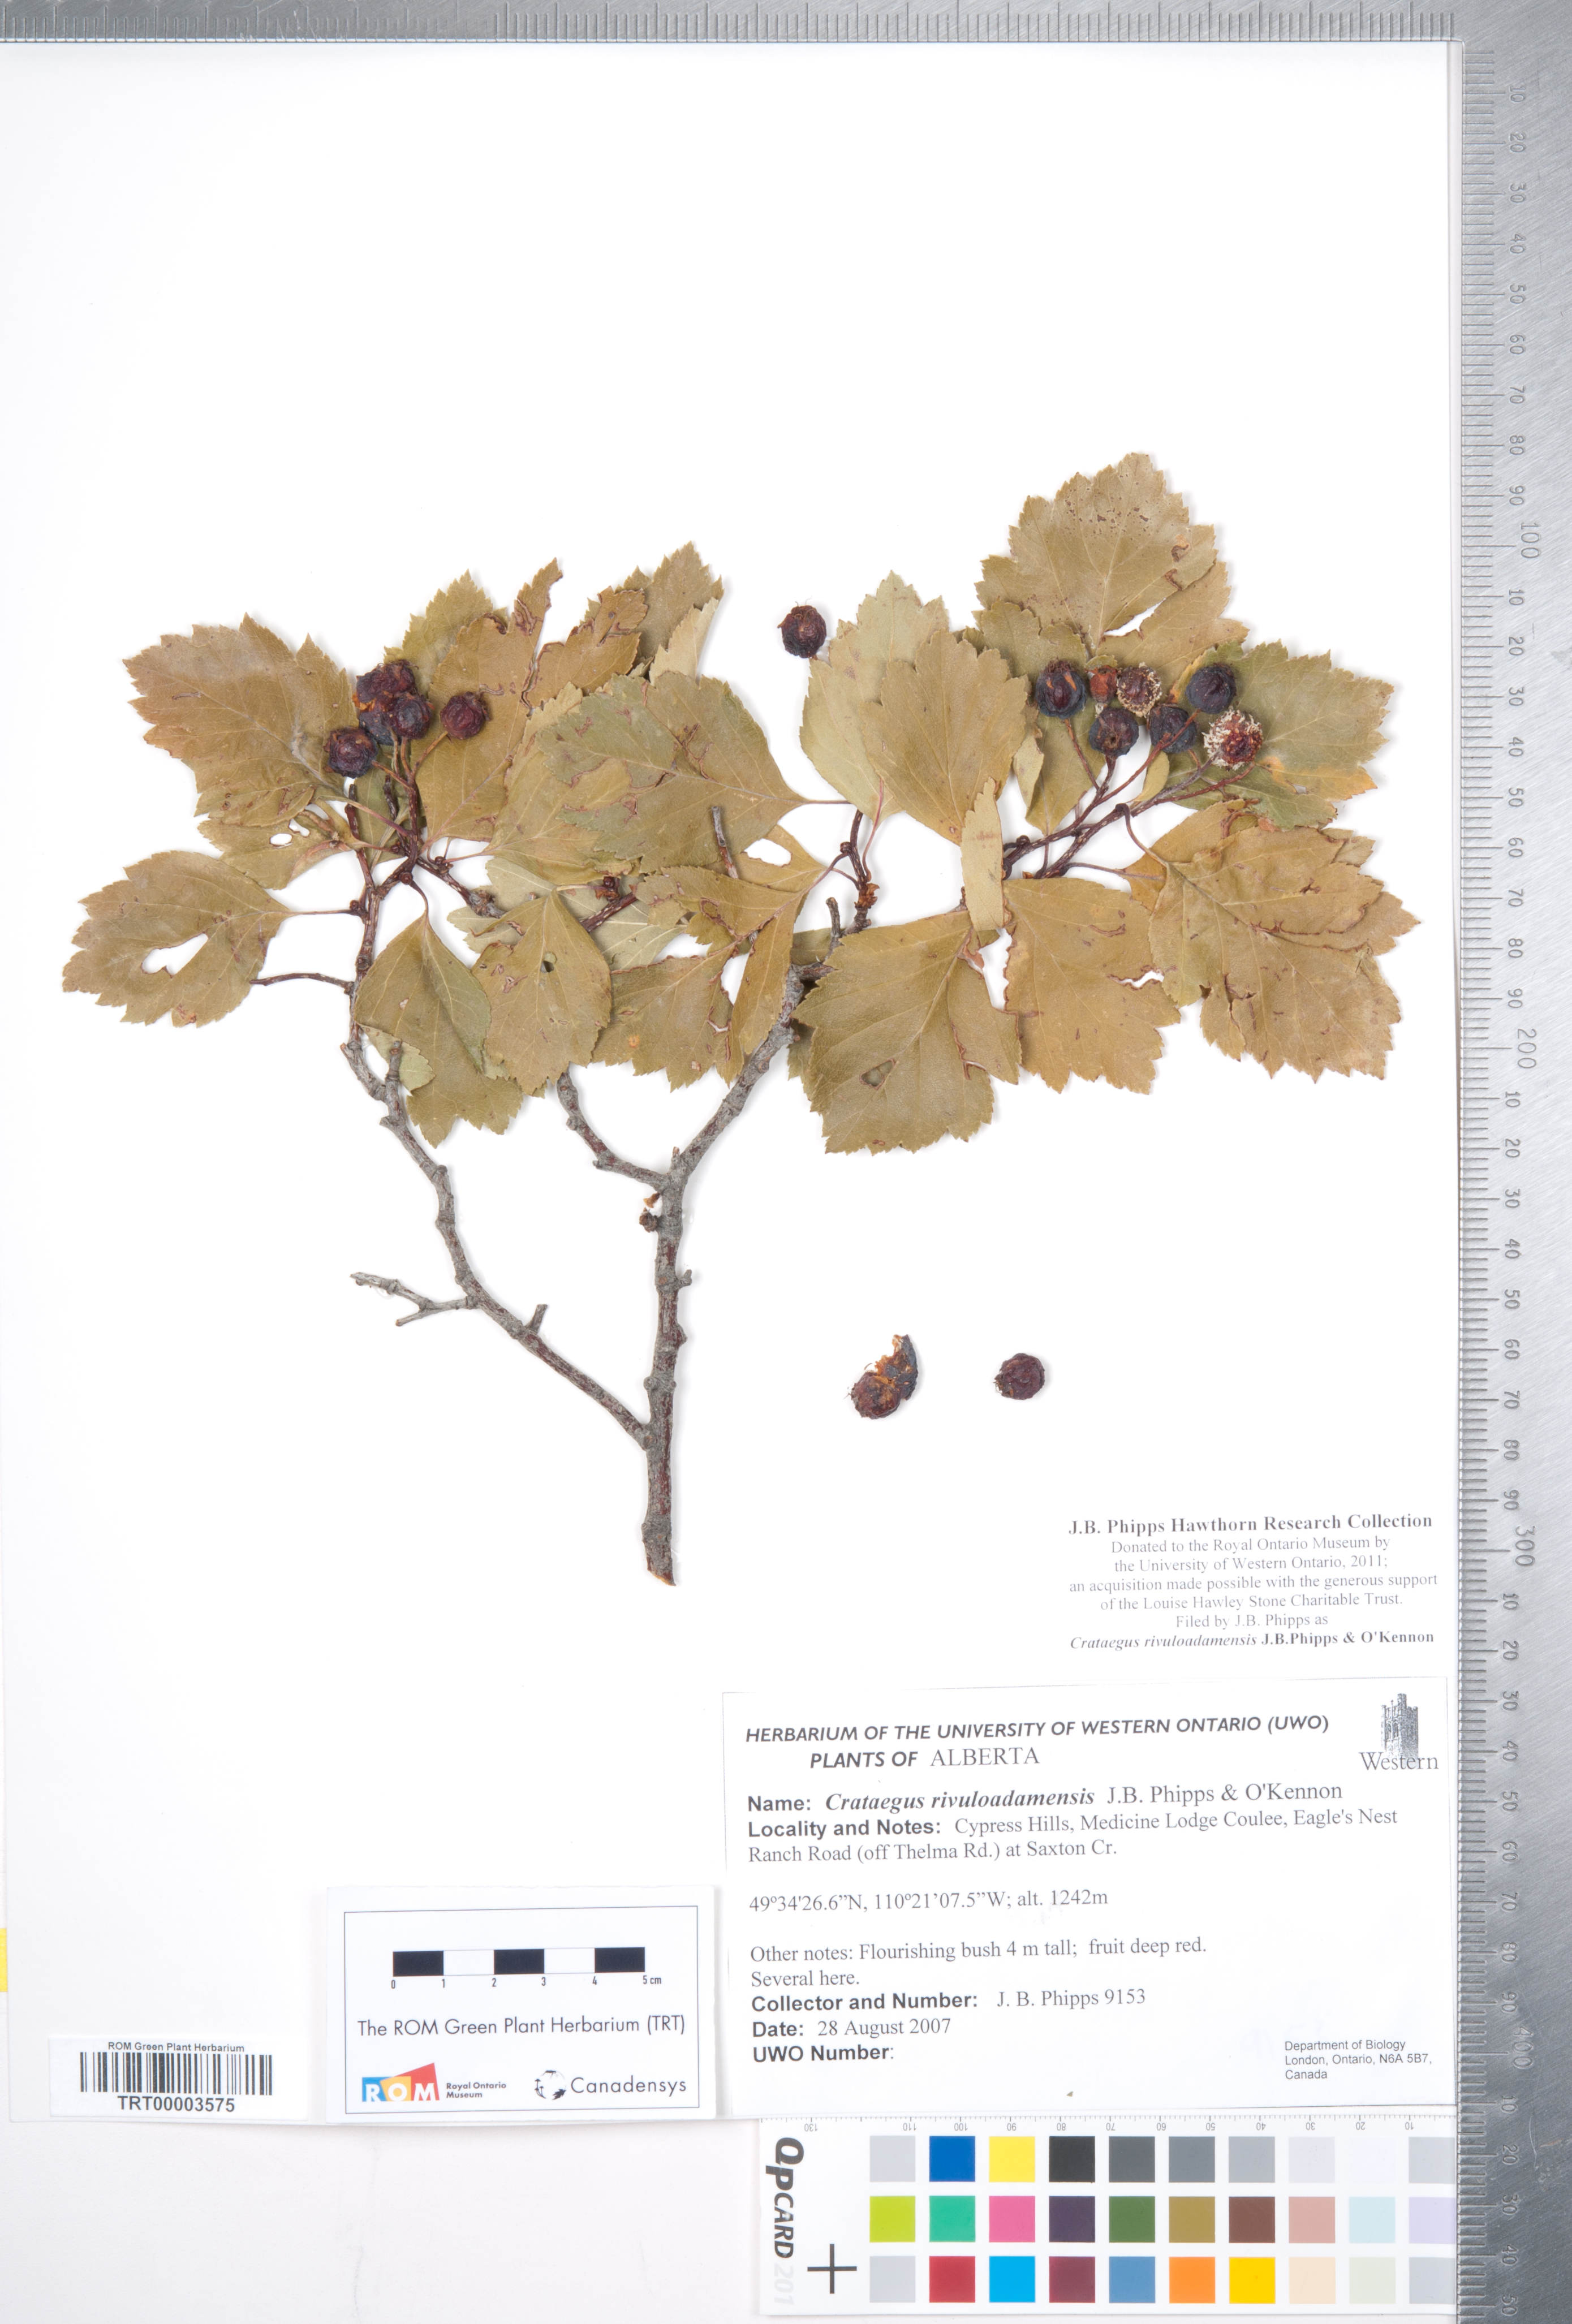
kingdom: Plantae
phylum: Tracheophyta
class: Magnoliopsida
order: Rosales
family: Rosaceae
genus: Crataegus
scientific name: Crataegus rivuloadamensis
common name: Adams creek hawthorn
